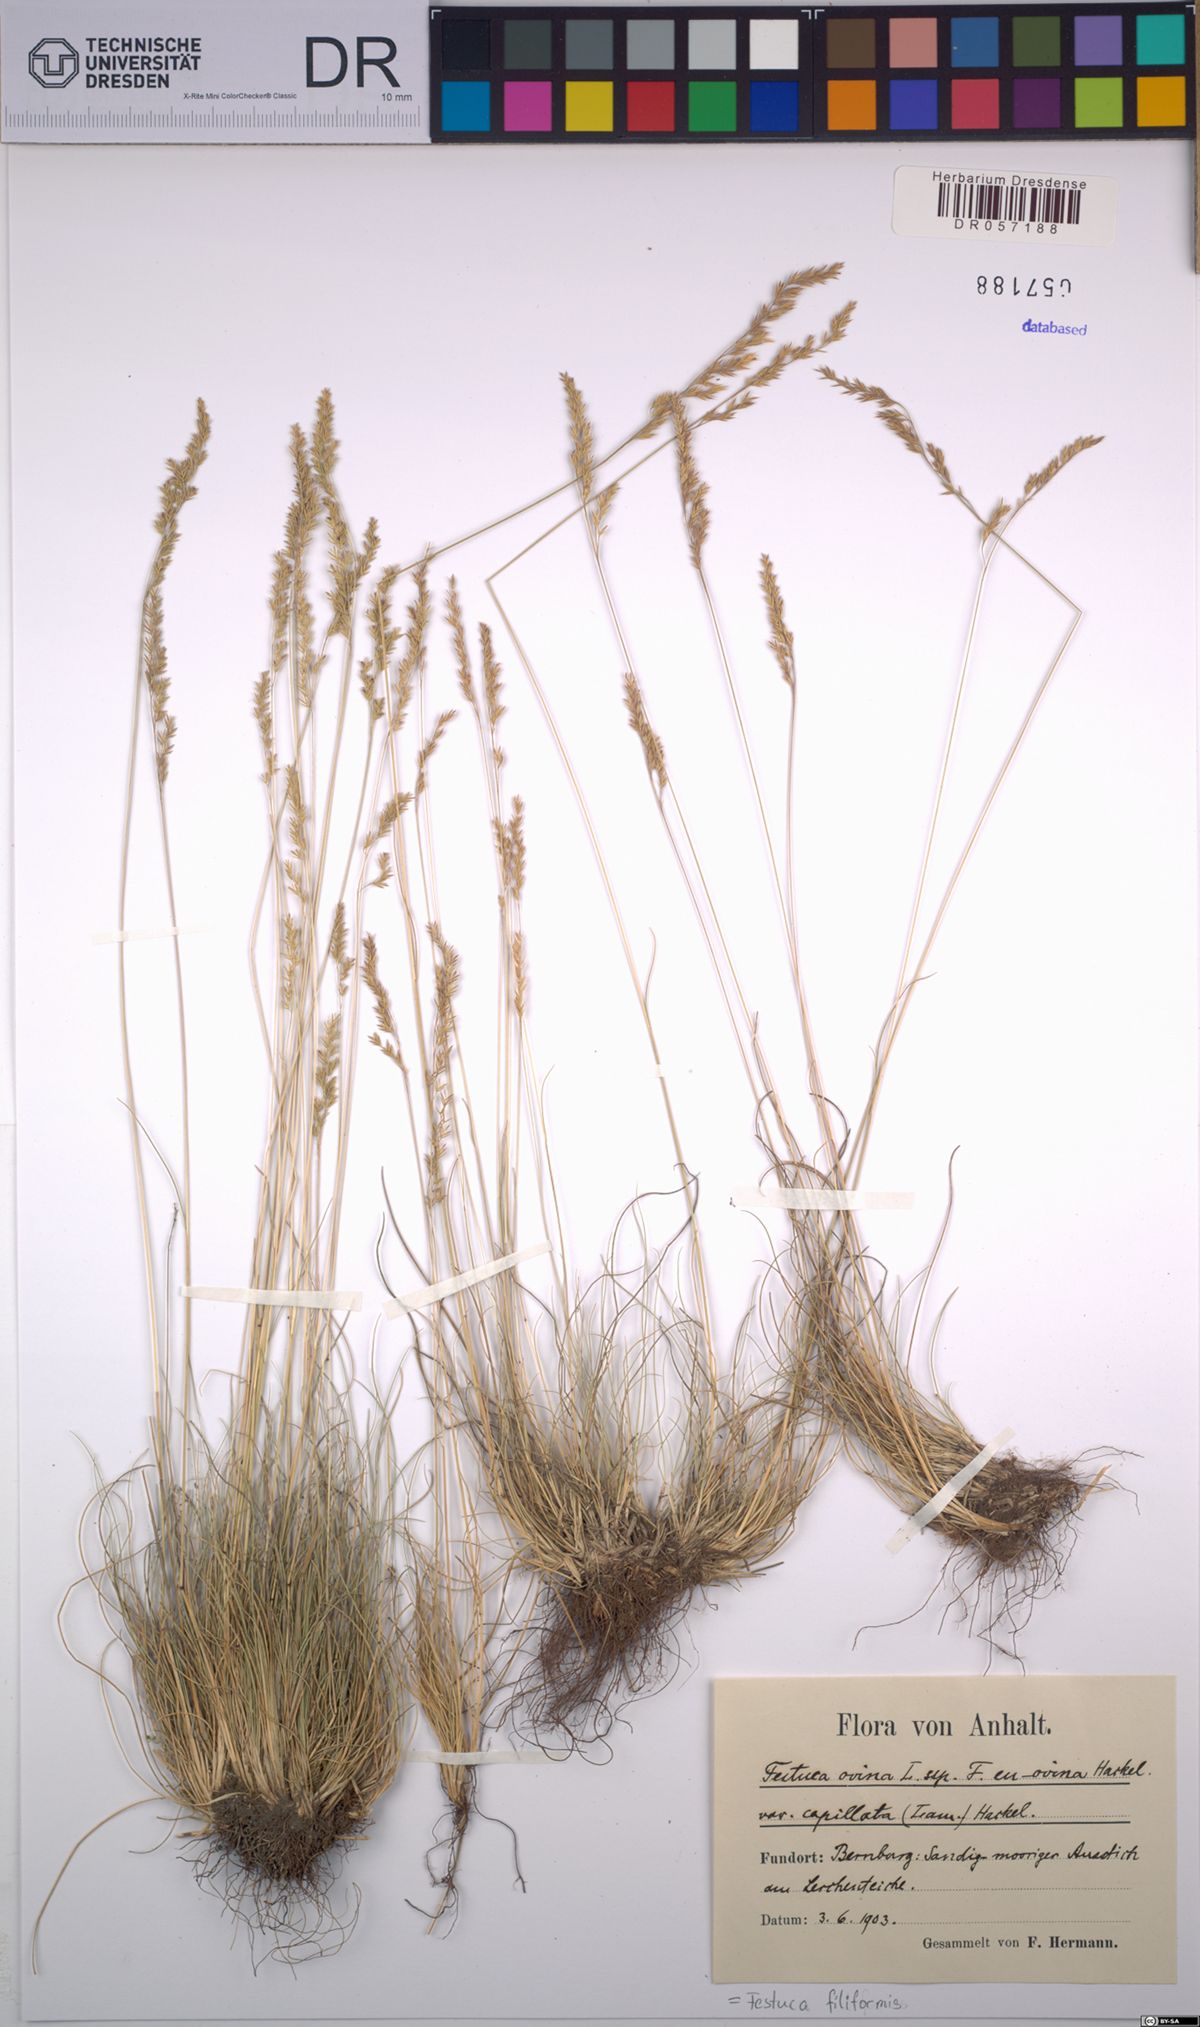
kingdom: Plantae
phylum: Tracheophyta
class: Liliopsida
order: Poales
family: Poaceae
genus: Festuca
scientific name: Festuca filiformis
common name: Fine-leaved sheep's-fescue
